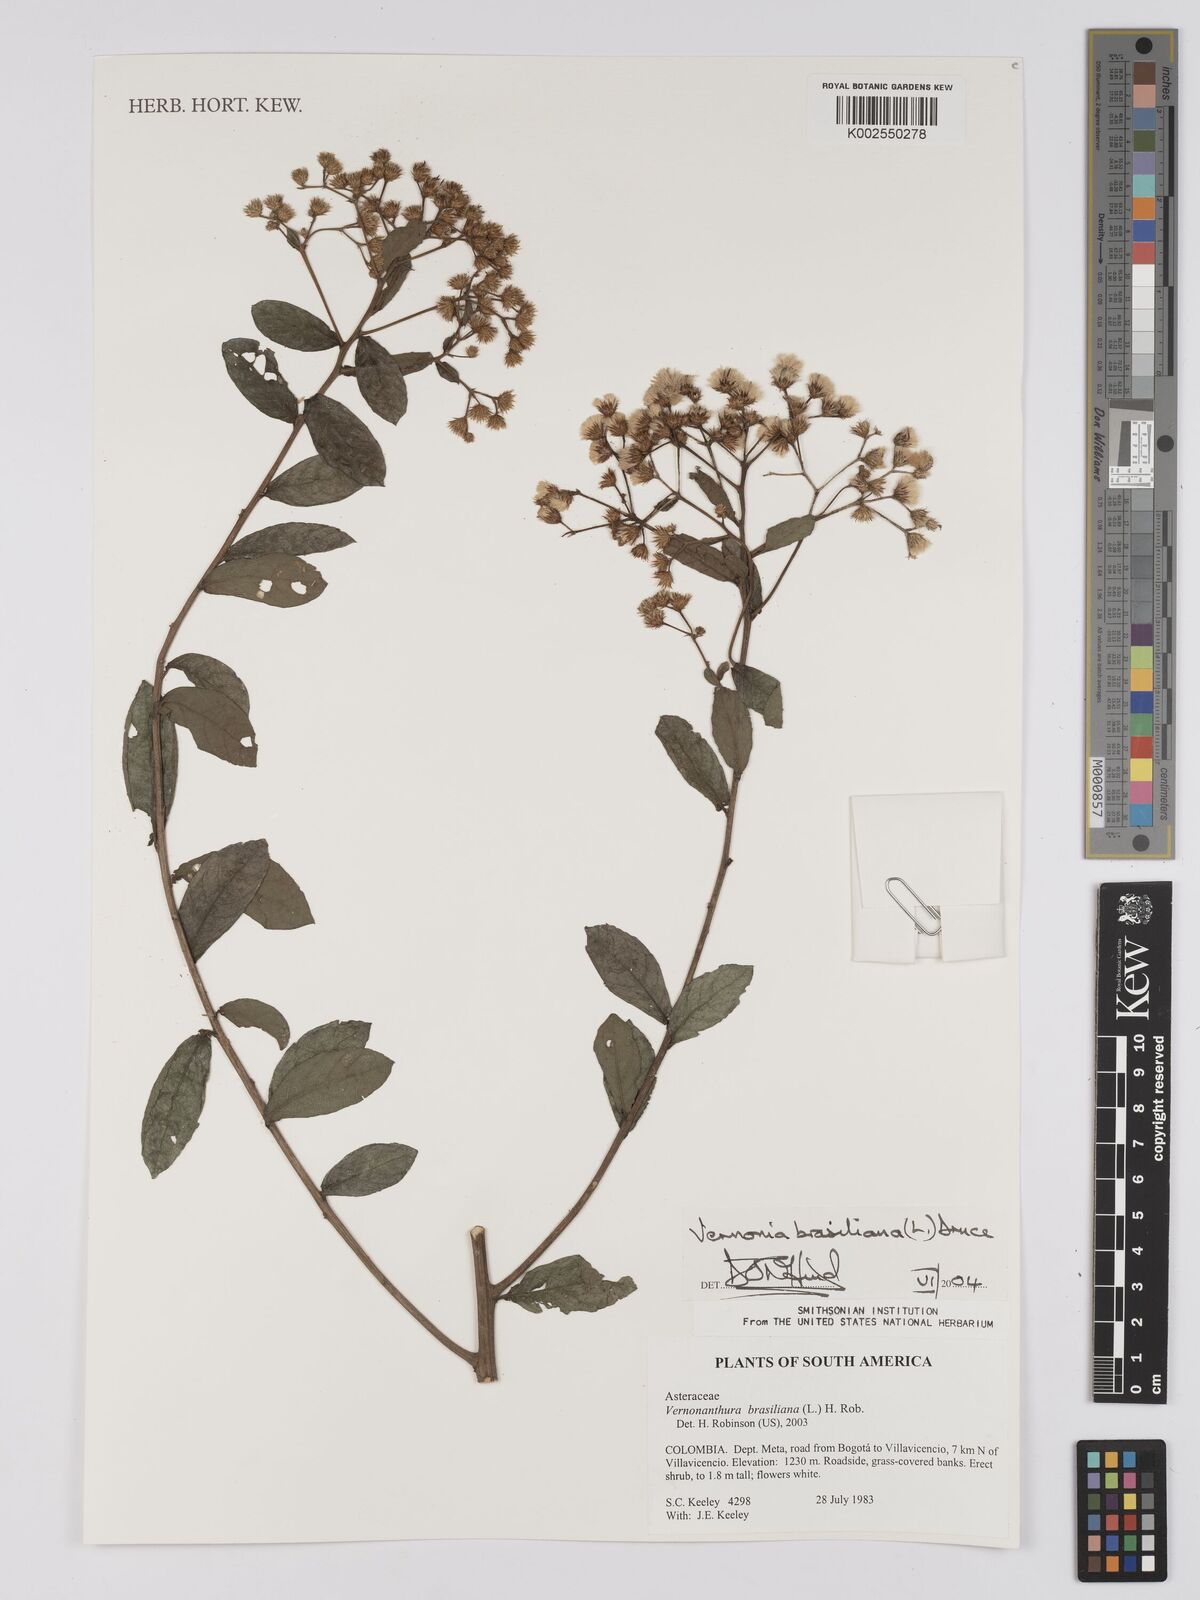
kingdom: Plantae
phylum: Tracheophyta
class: Magnoliopsida
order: Asterales
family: Asteraceae
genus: Vernonanthura
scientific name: Vernonanthura brasiliana
